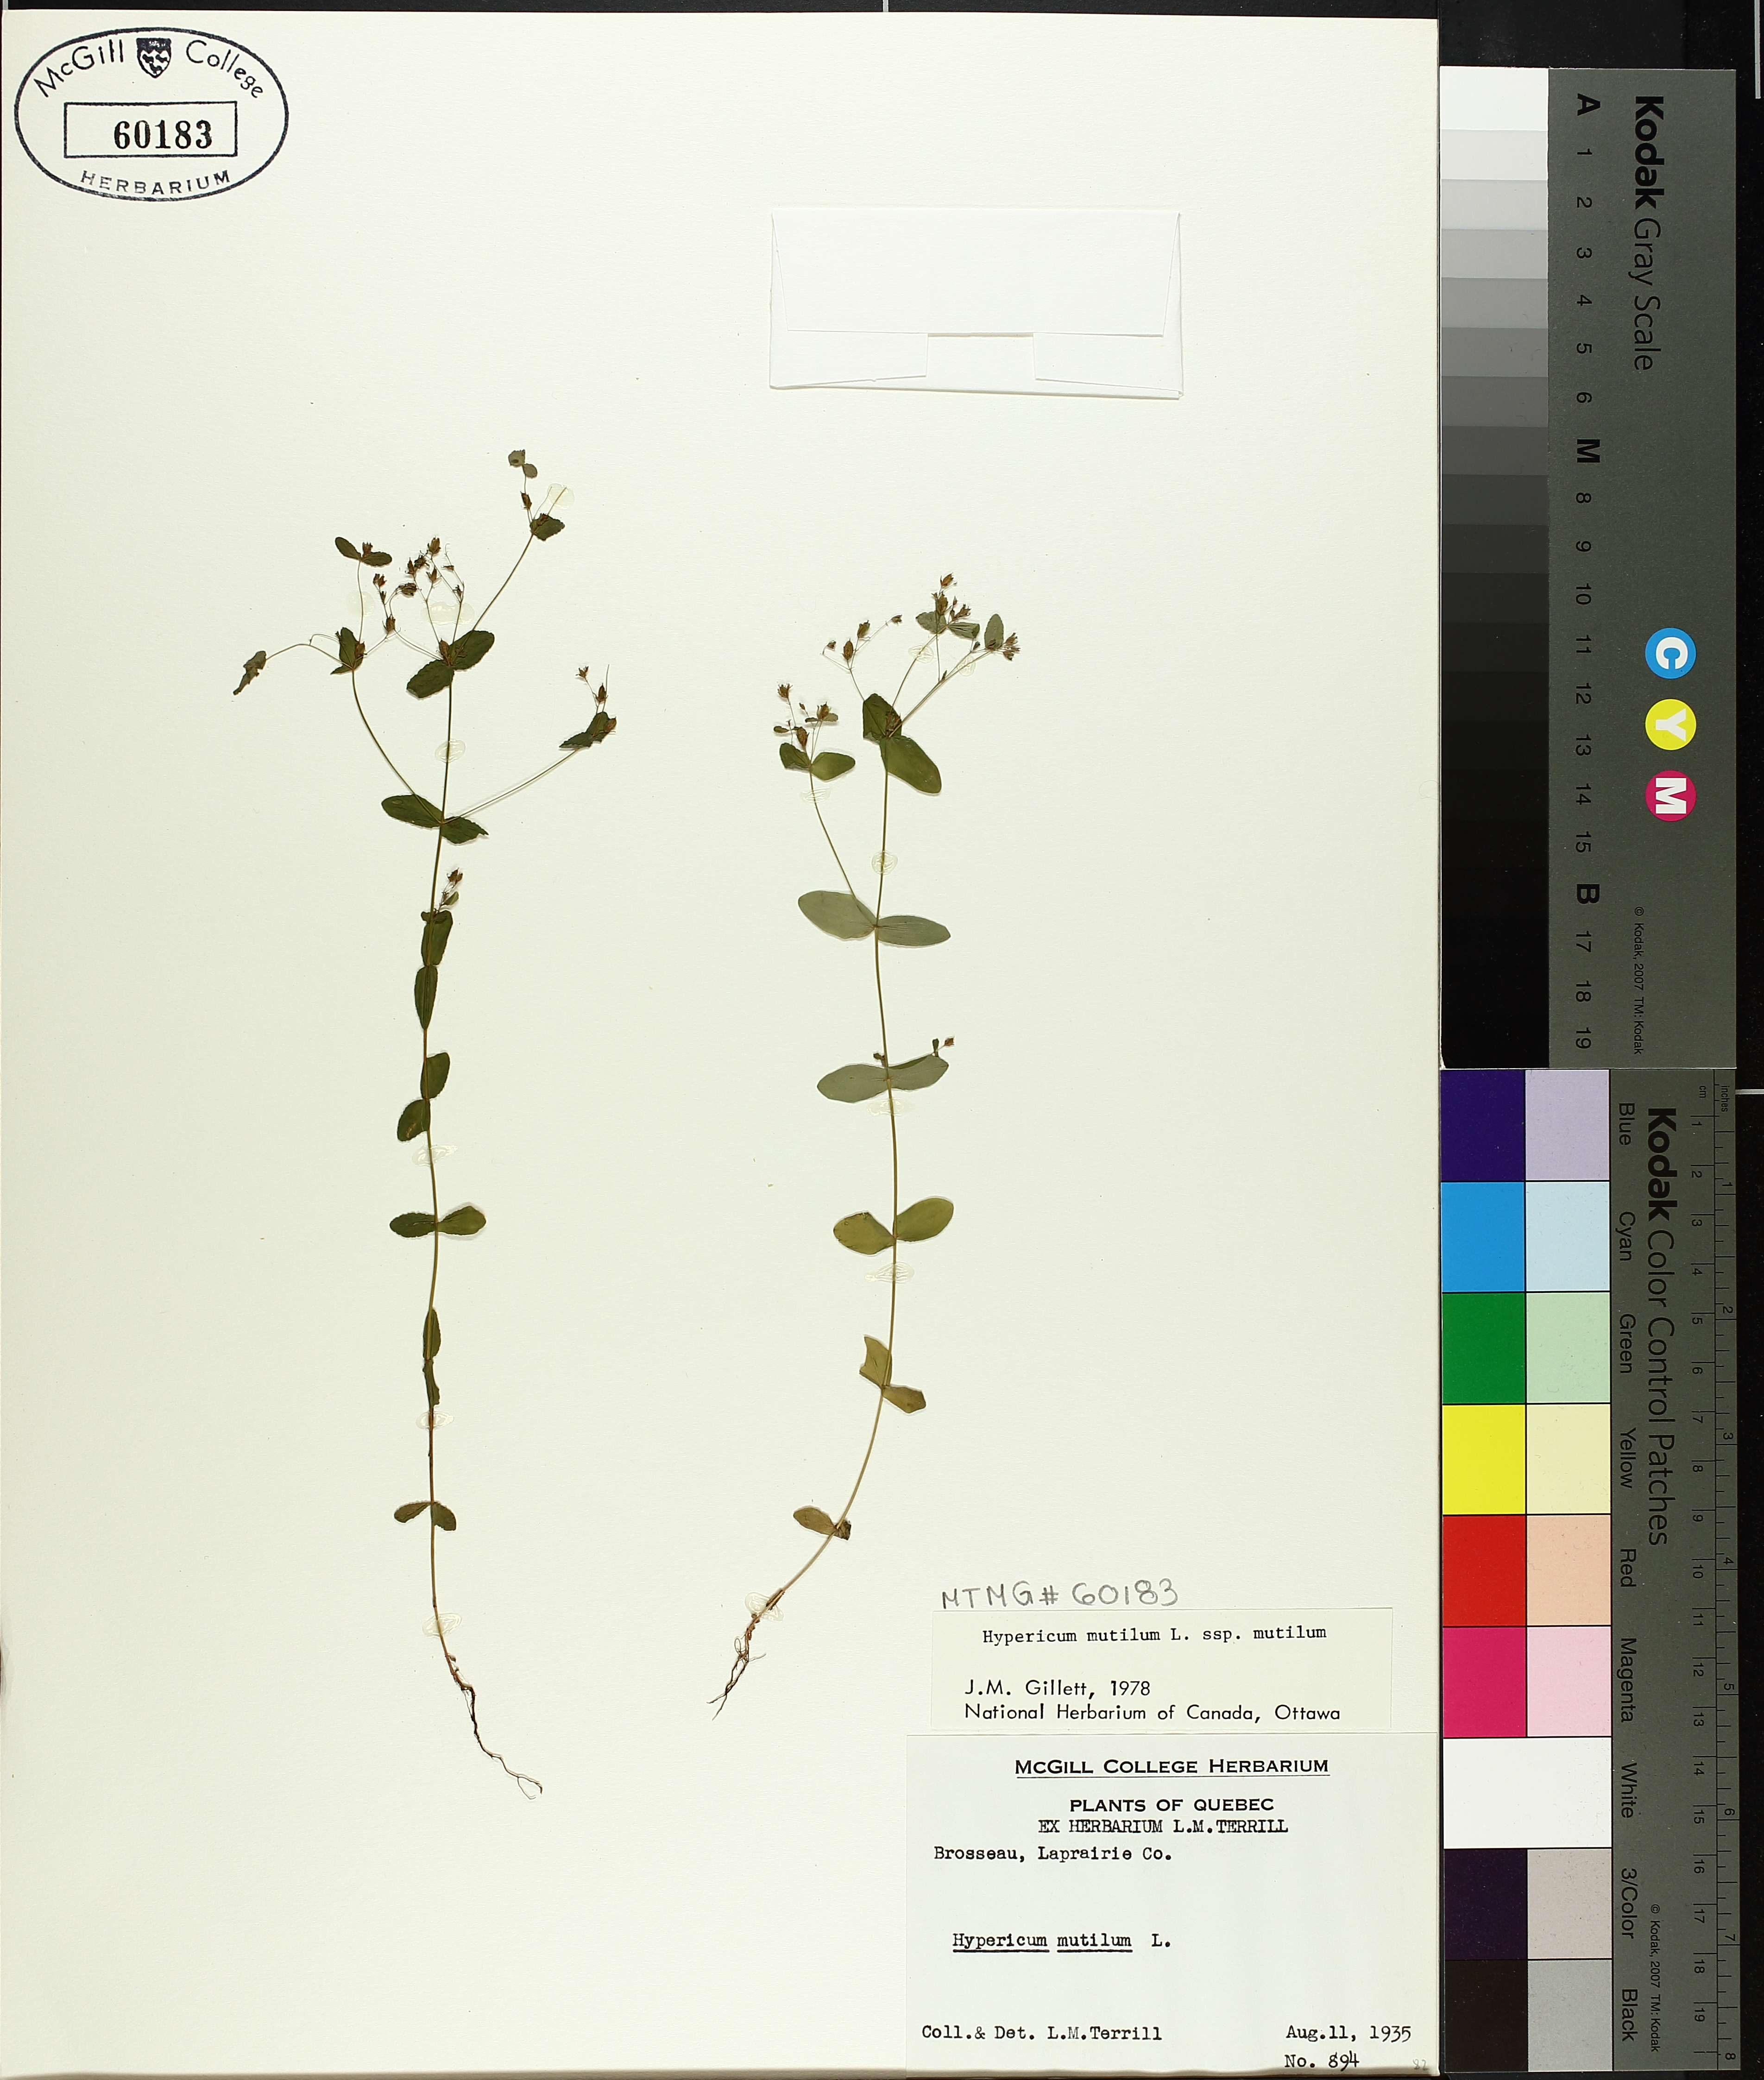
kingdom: Plantae
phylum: Tracheophyta
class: Magnoliopsida
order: Malpighiales
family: Hypericaceae
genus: Hypericum
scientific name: Hypericum mutilum
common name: Dwarf st. john's-wort
